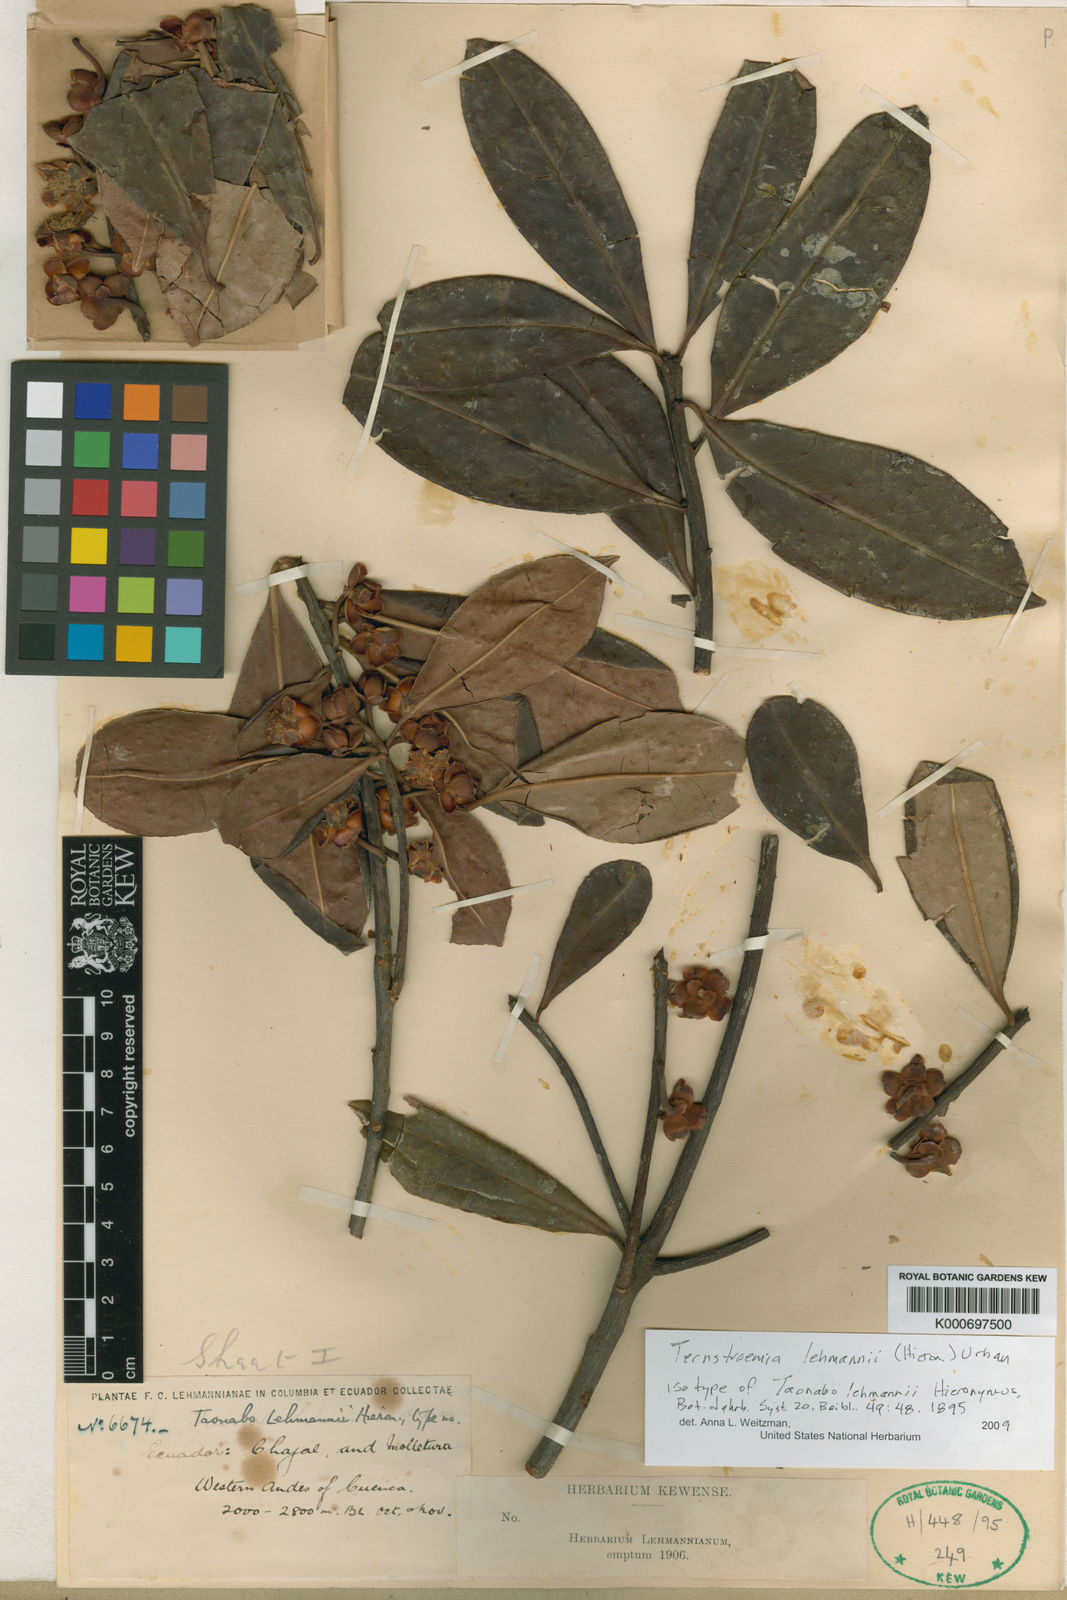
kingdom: Plantae
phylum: Tracheophyta
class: Magnoliopsida
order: Ericales
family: Pentaphylacaceae
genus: Ternstroemia
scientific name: Ternstroemia lehmannii
